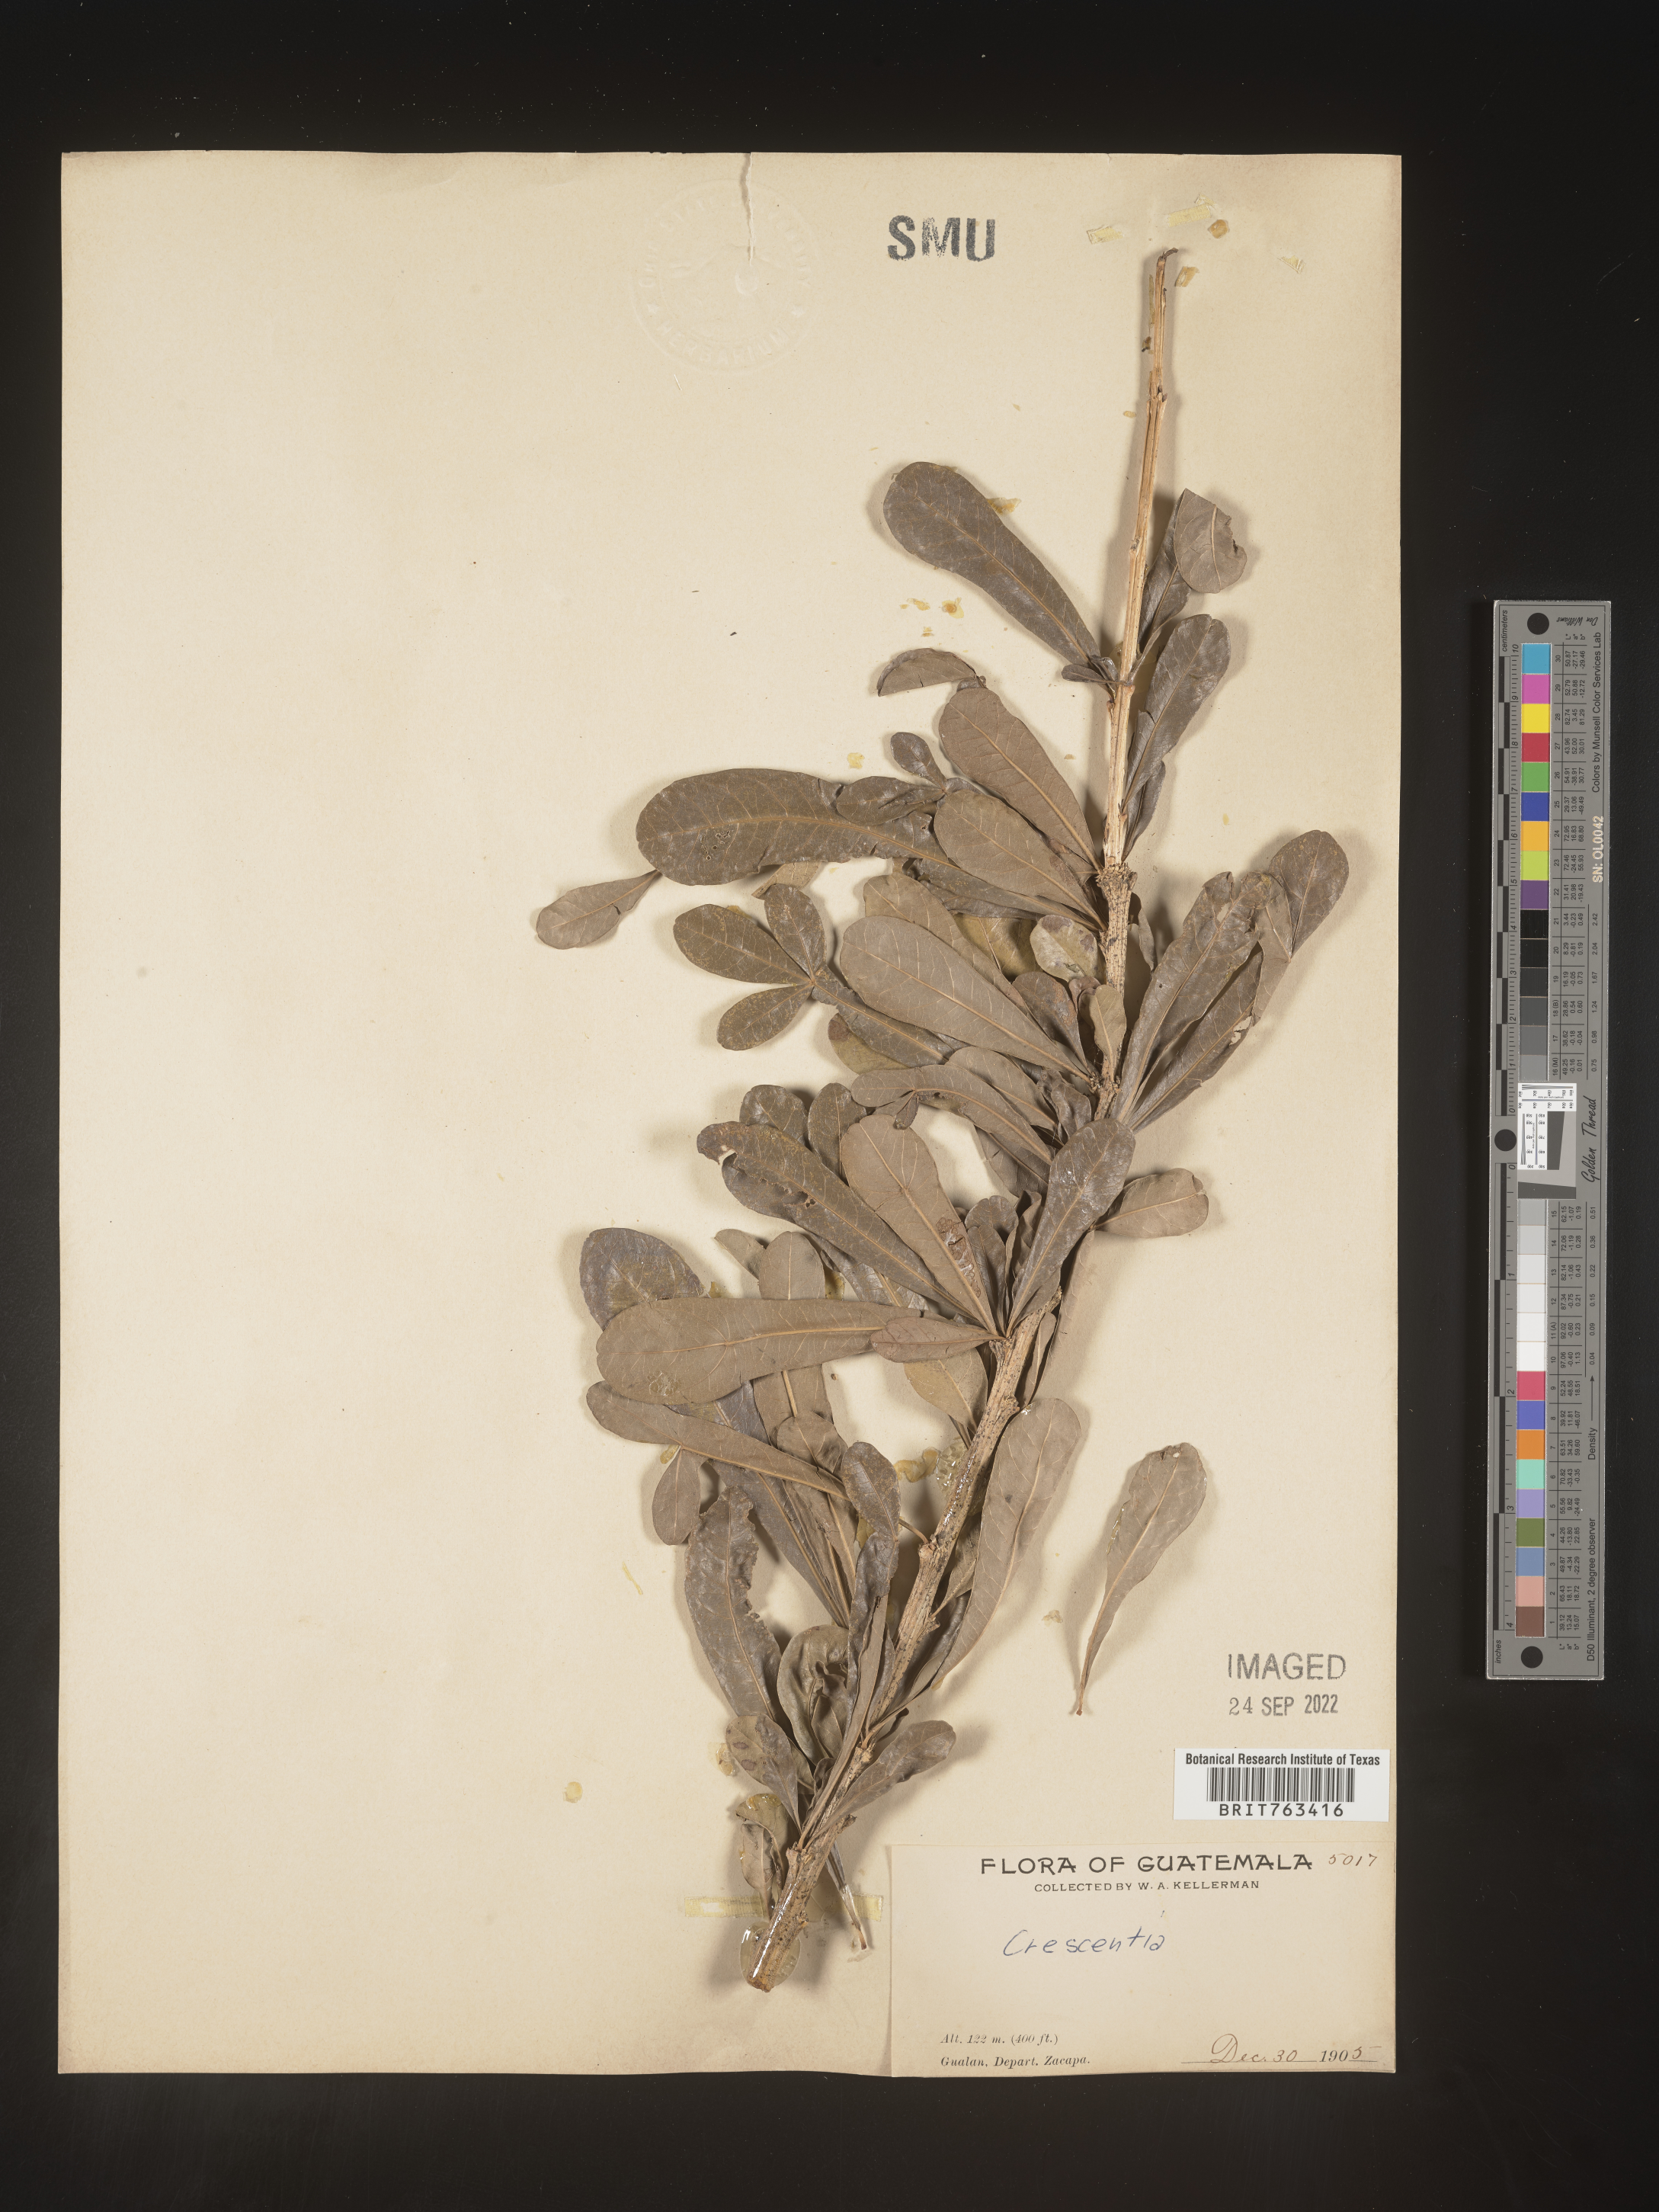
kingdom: Plantae
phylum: Tracheophyta
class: Magnoliopsida
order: Lamiales
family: Bignoniaceae
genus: Crescentia
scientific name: Crescentia
